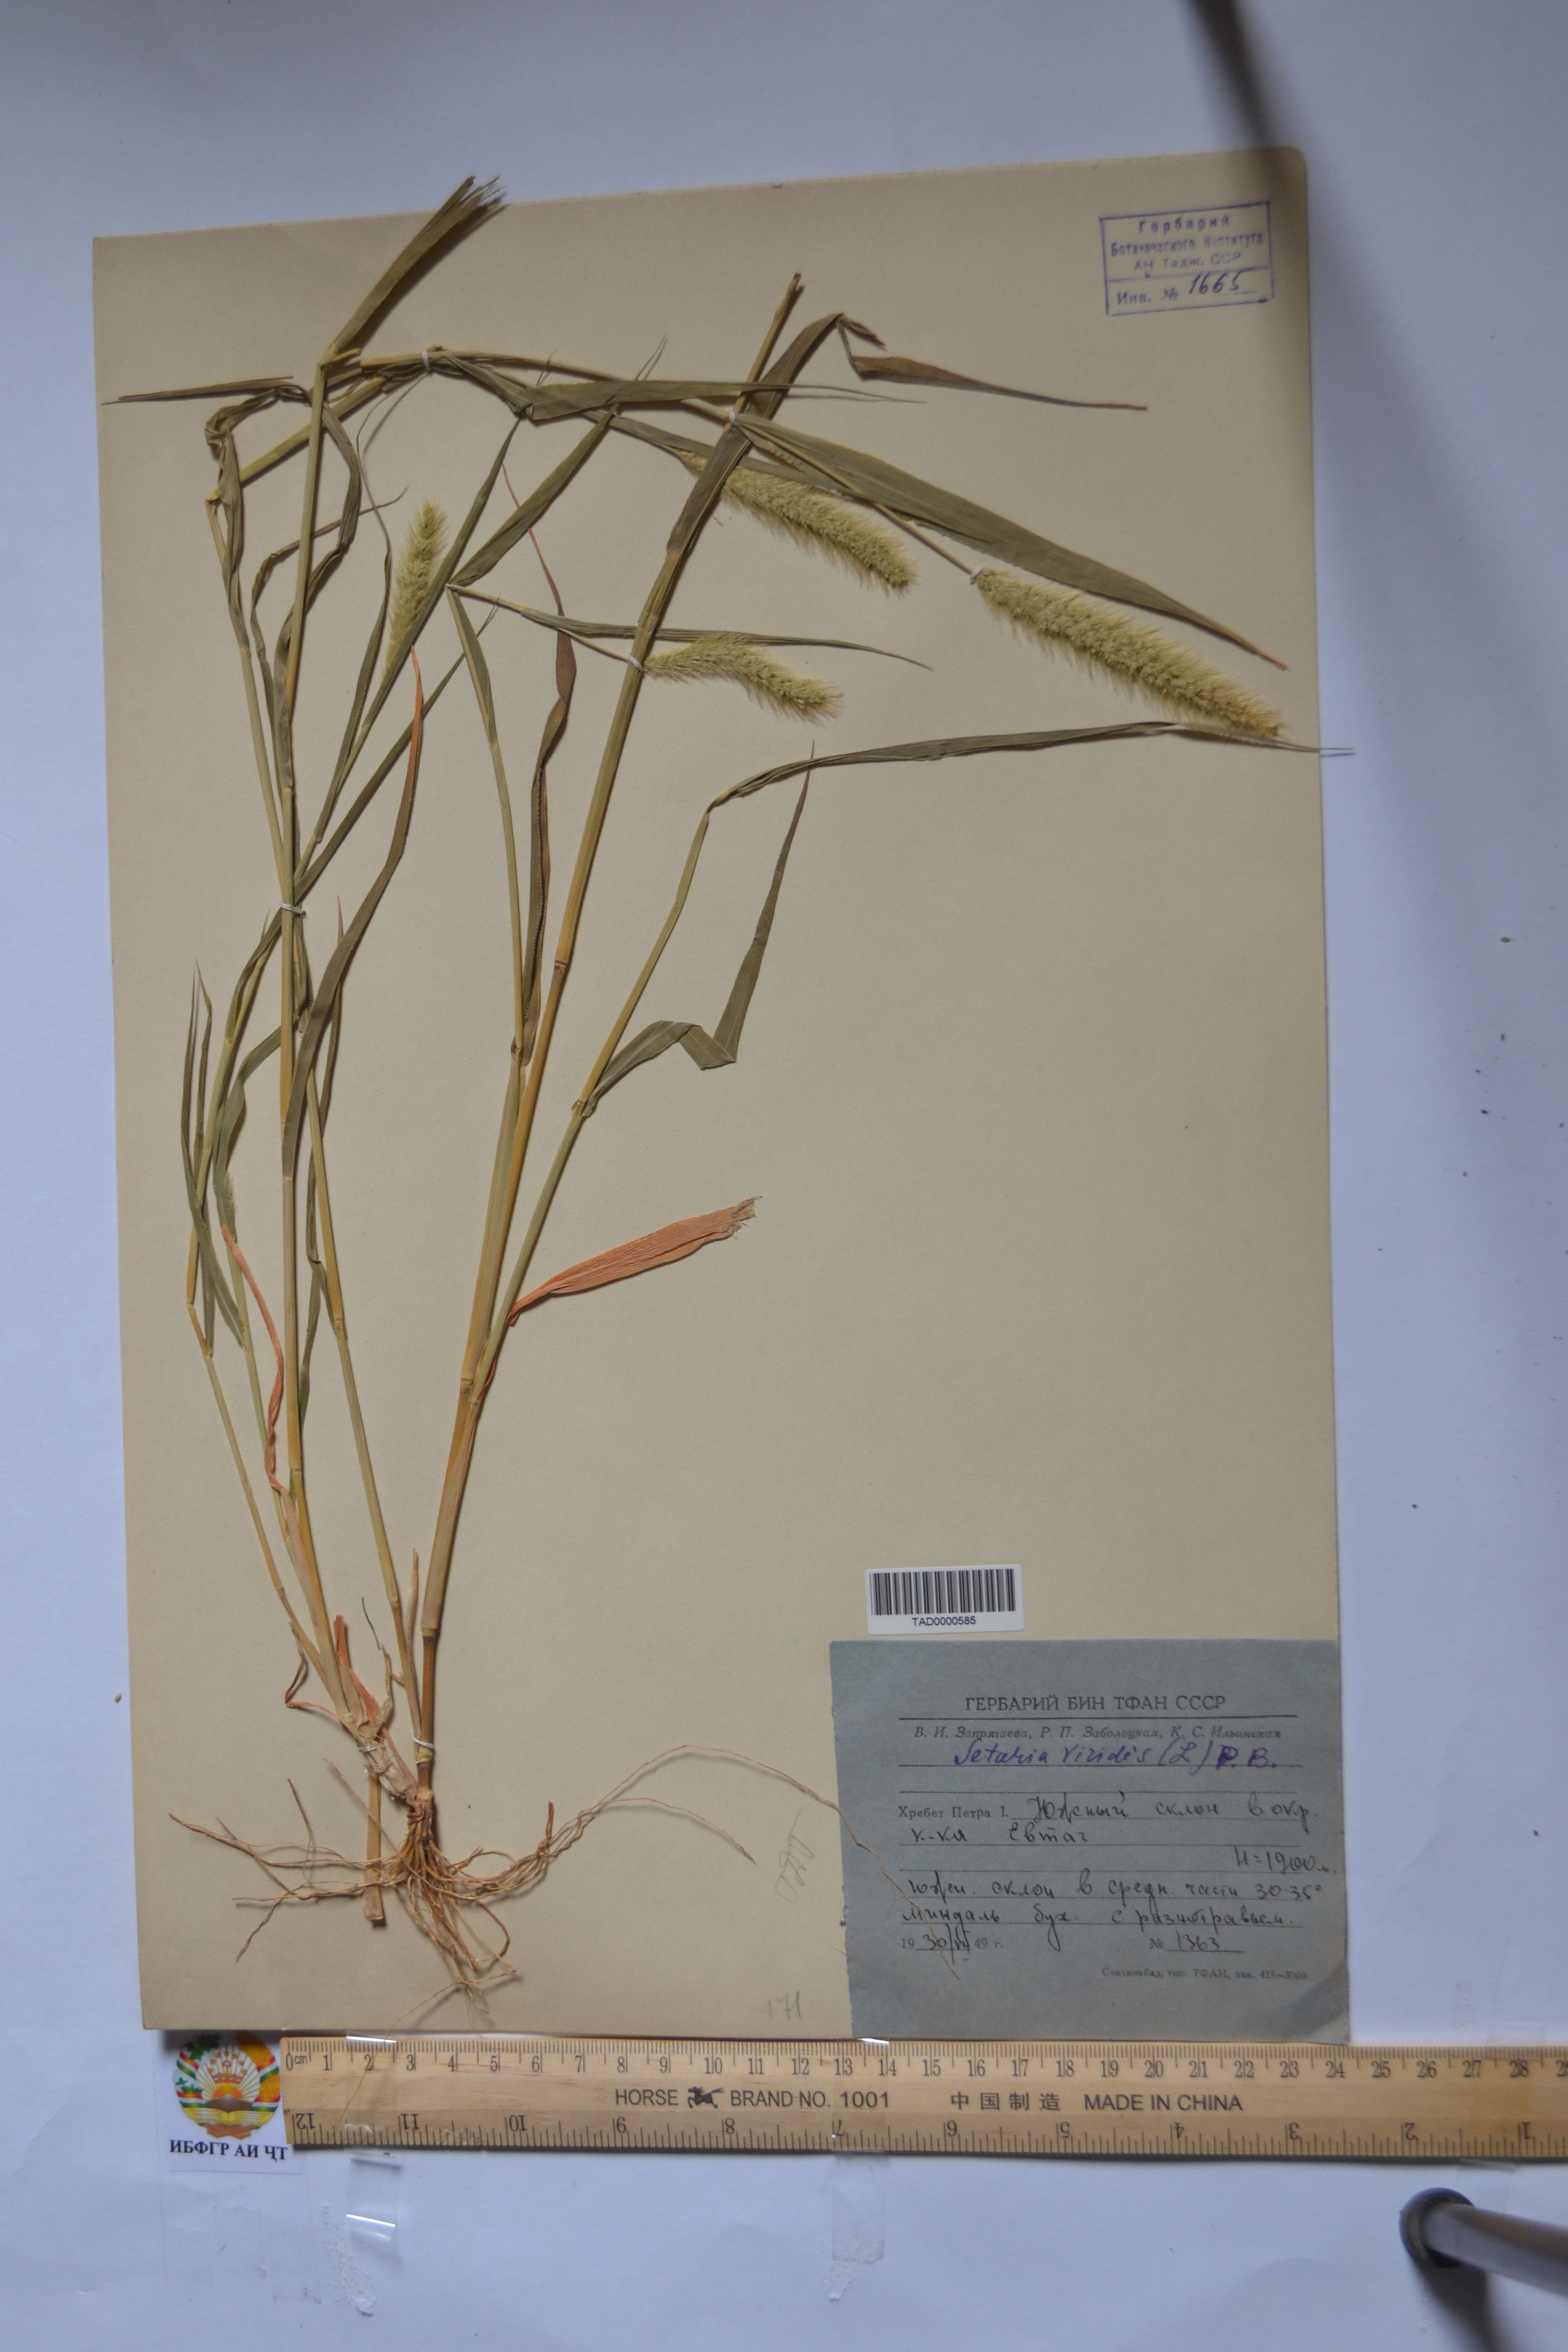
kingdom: Plantae
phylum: Tracheophyta
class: Liliopsida
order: Poales
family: Poaceae
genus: Setaria
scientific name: Setaria viridis
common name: Green bristlegrass
